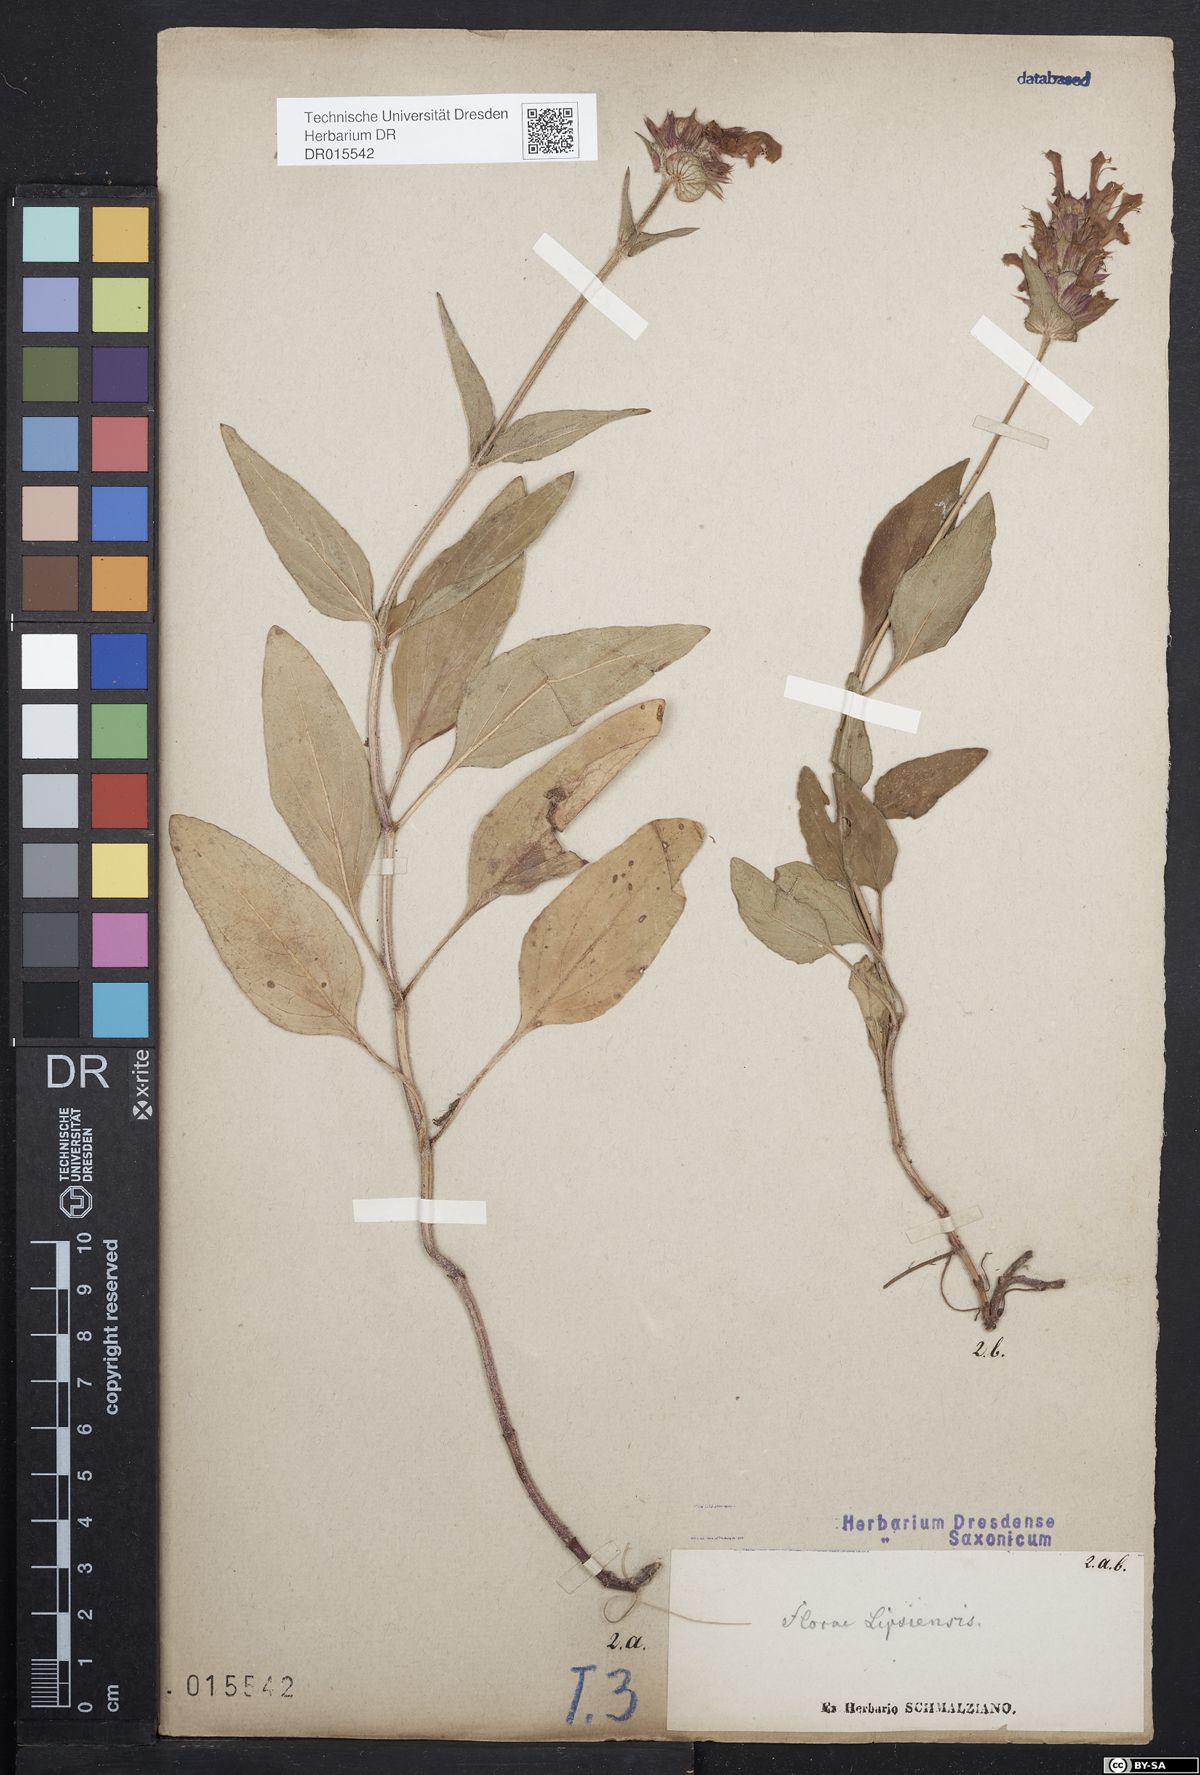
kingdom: Plantae
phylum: Tracheophyta
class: Magnoliopsida
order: Lamiales
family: Lamiaceae
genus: Prunella
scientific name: Prunella grandiflora
